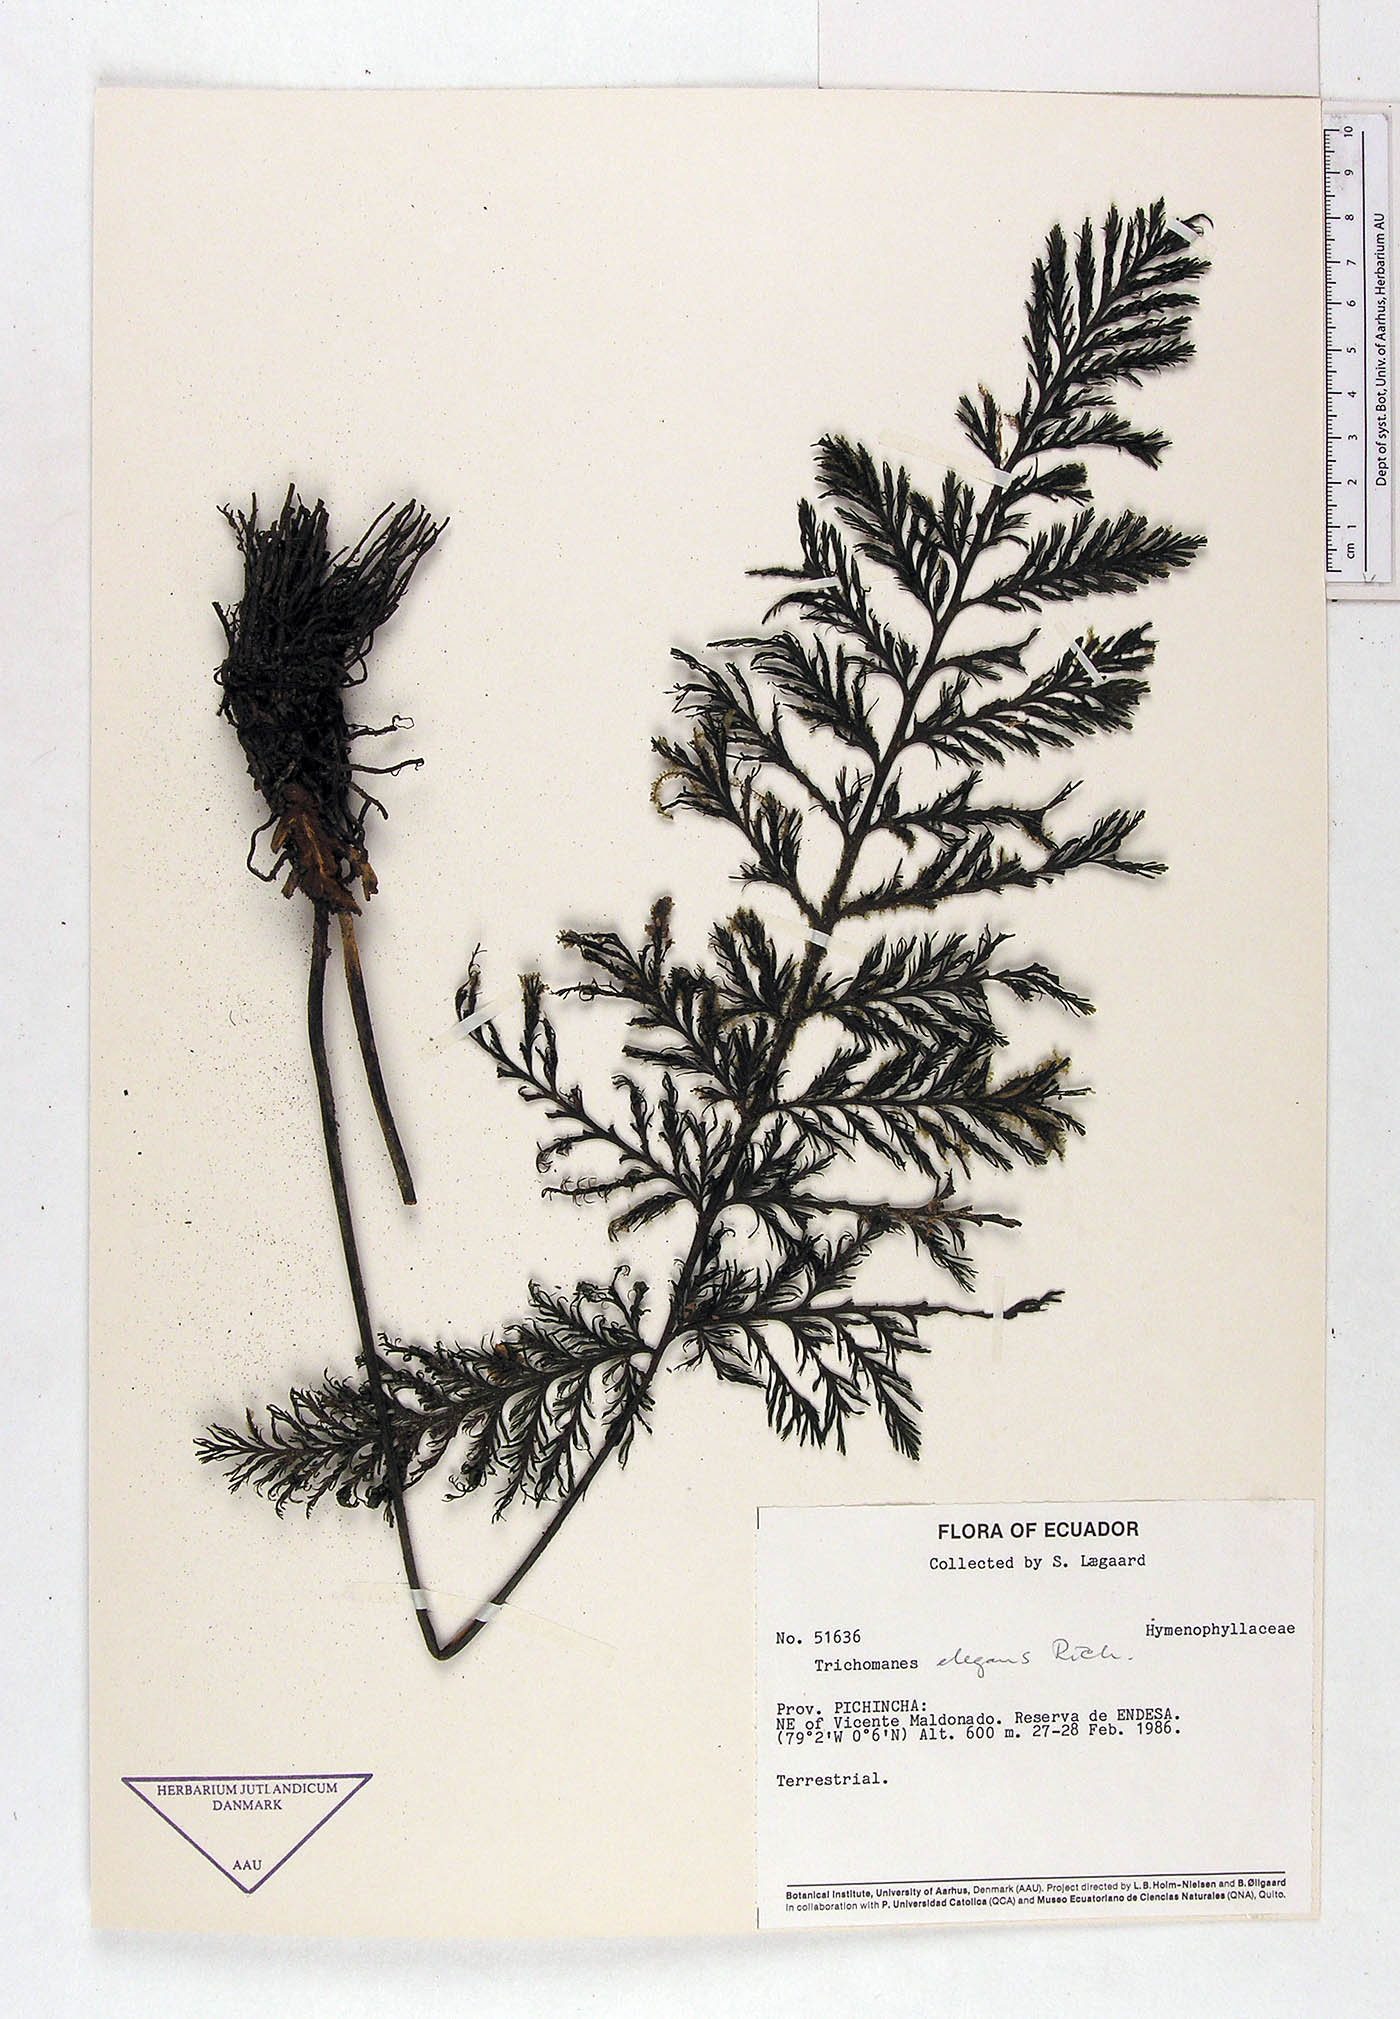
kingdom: Plantae
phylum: Tracheophyta
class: Polypodiopsida
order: Hymenophyllales
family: Hymenophyllaceae
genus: Trichomanes
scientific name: Trichomanes
